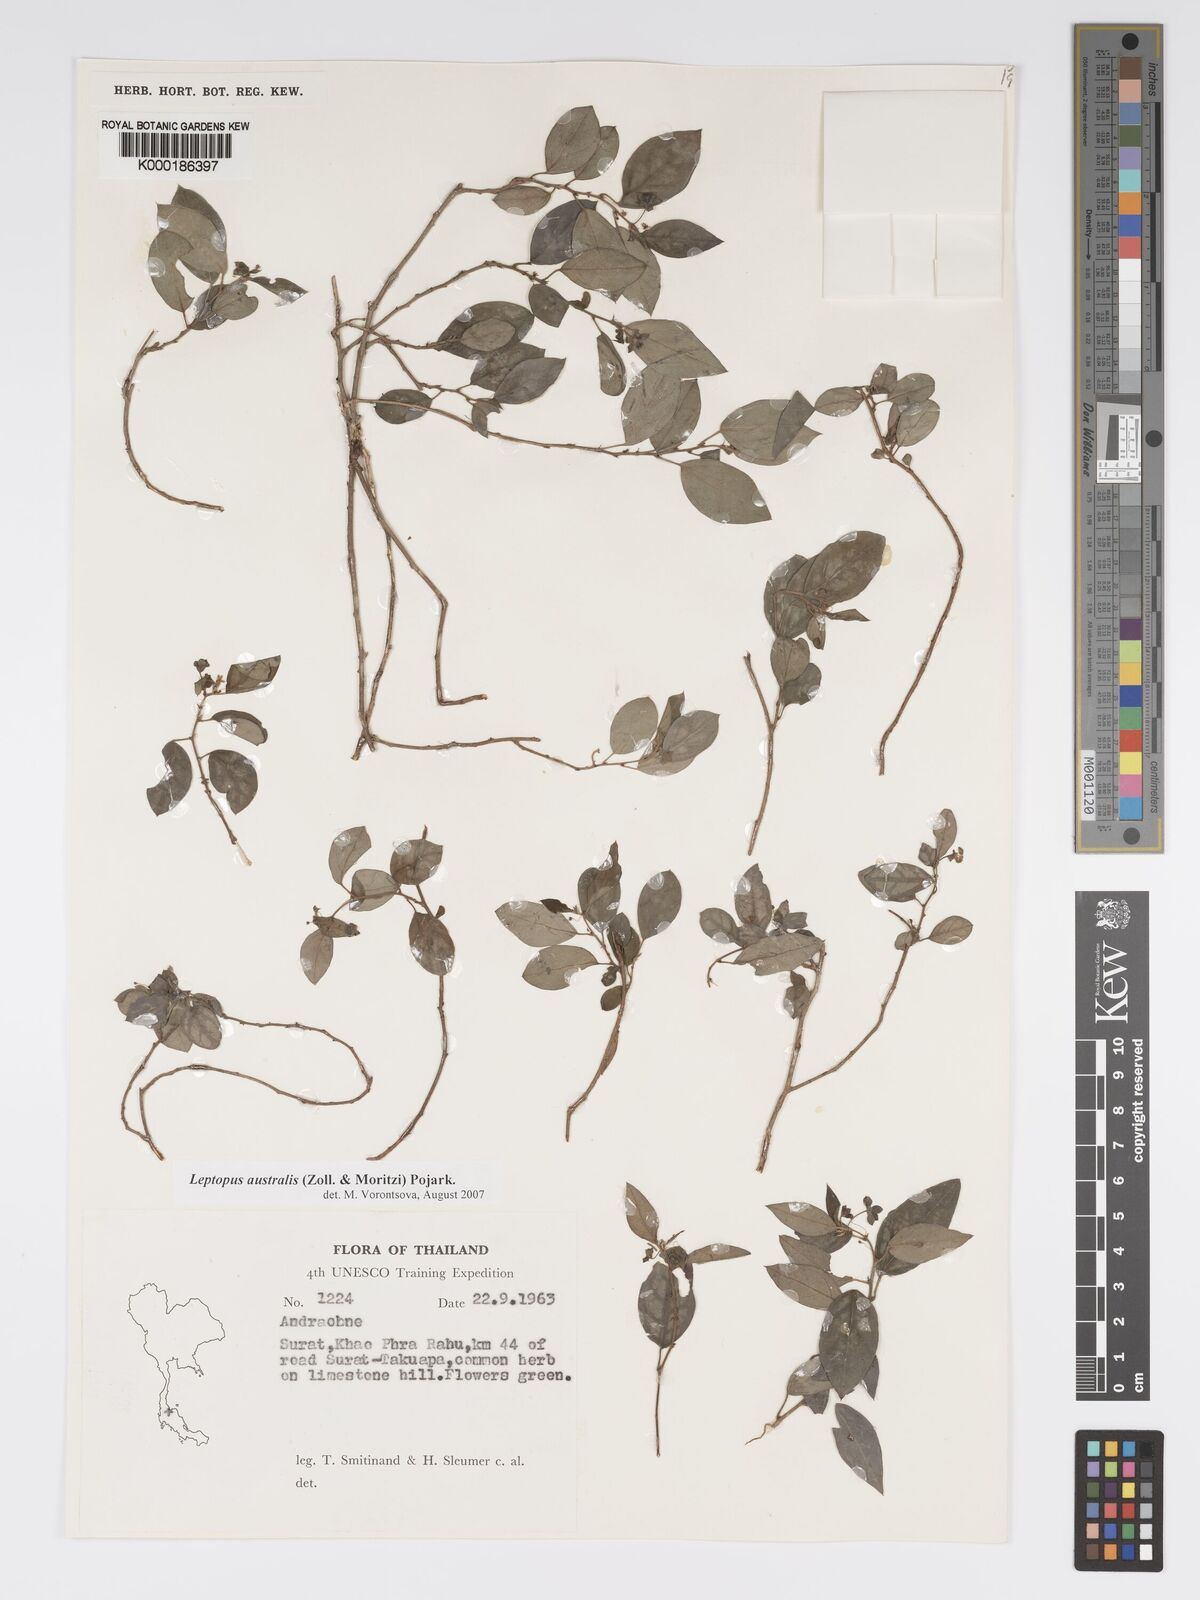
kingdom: Plantae
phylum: Tracheophyta
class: Magnoliopsida
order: Malpighiales
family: Phyllanthaceae
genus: Andrachne
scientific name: Andrachne
